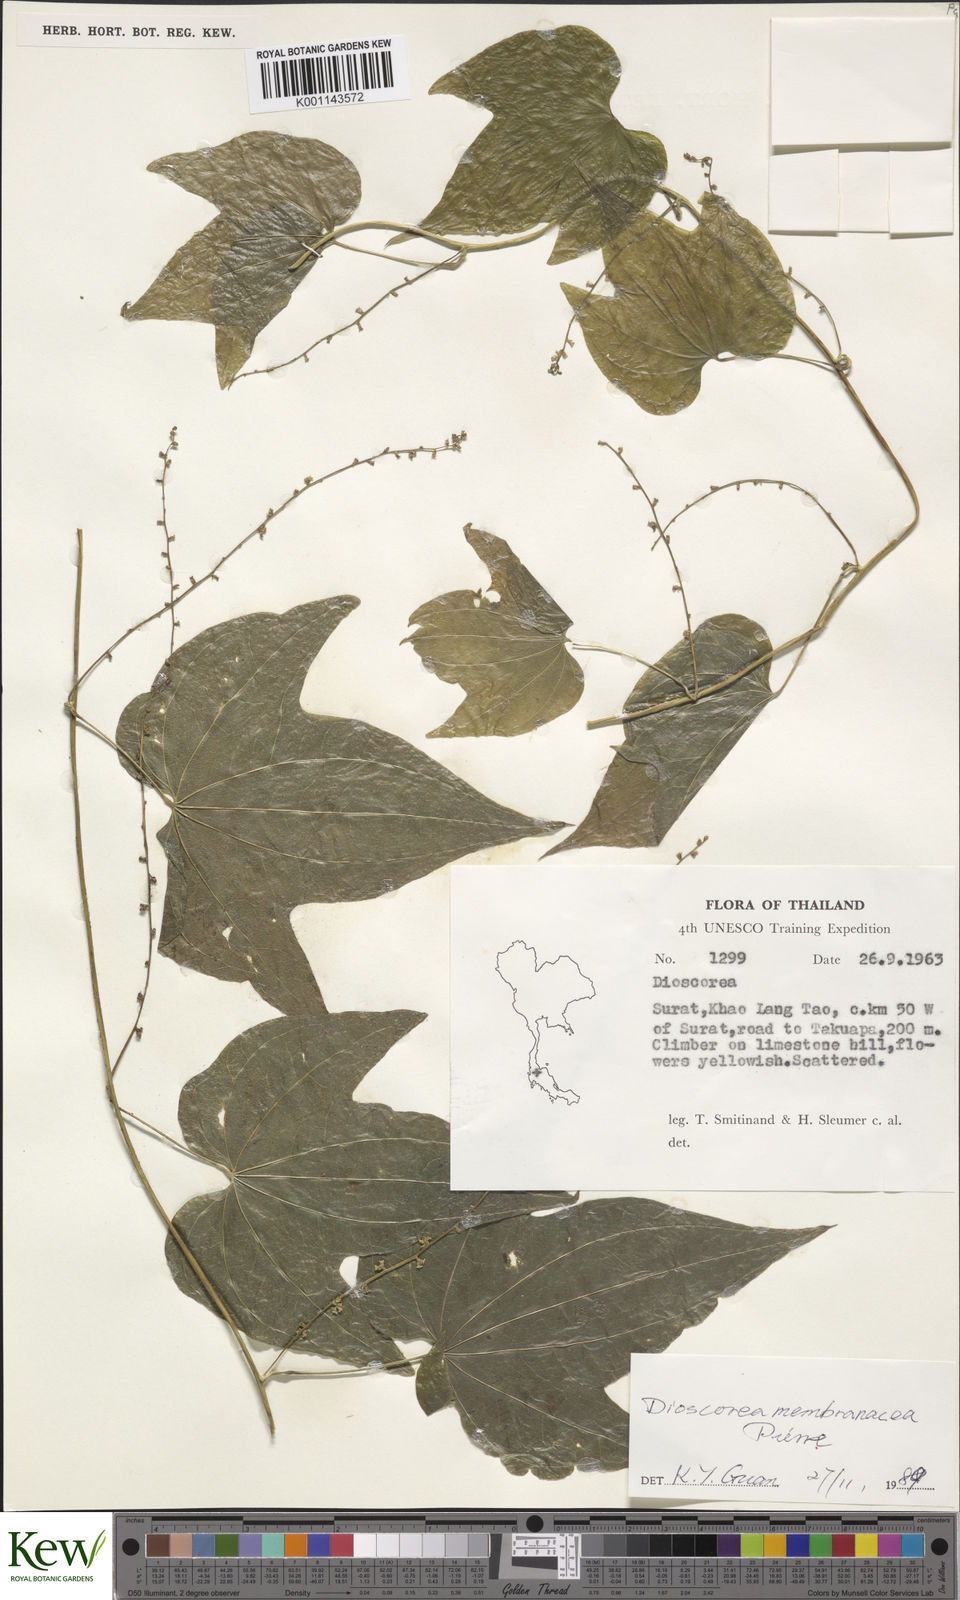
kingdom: Plantae
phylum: Tracheophyta
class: Liliopsida
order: Dioscoreales
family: Dioscoreaceae
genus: Dioscorea
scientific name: Dioscorea membranacea
